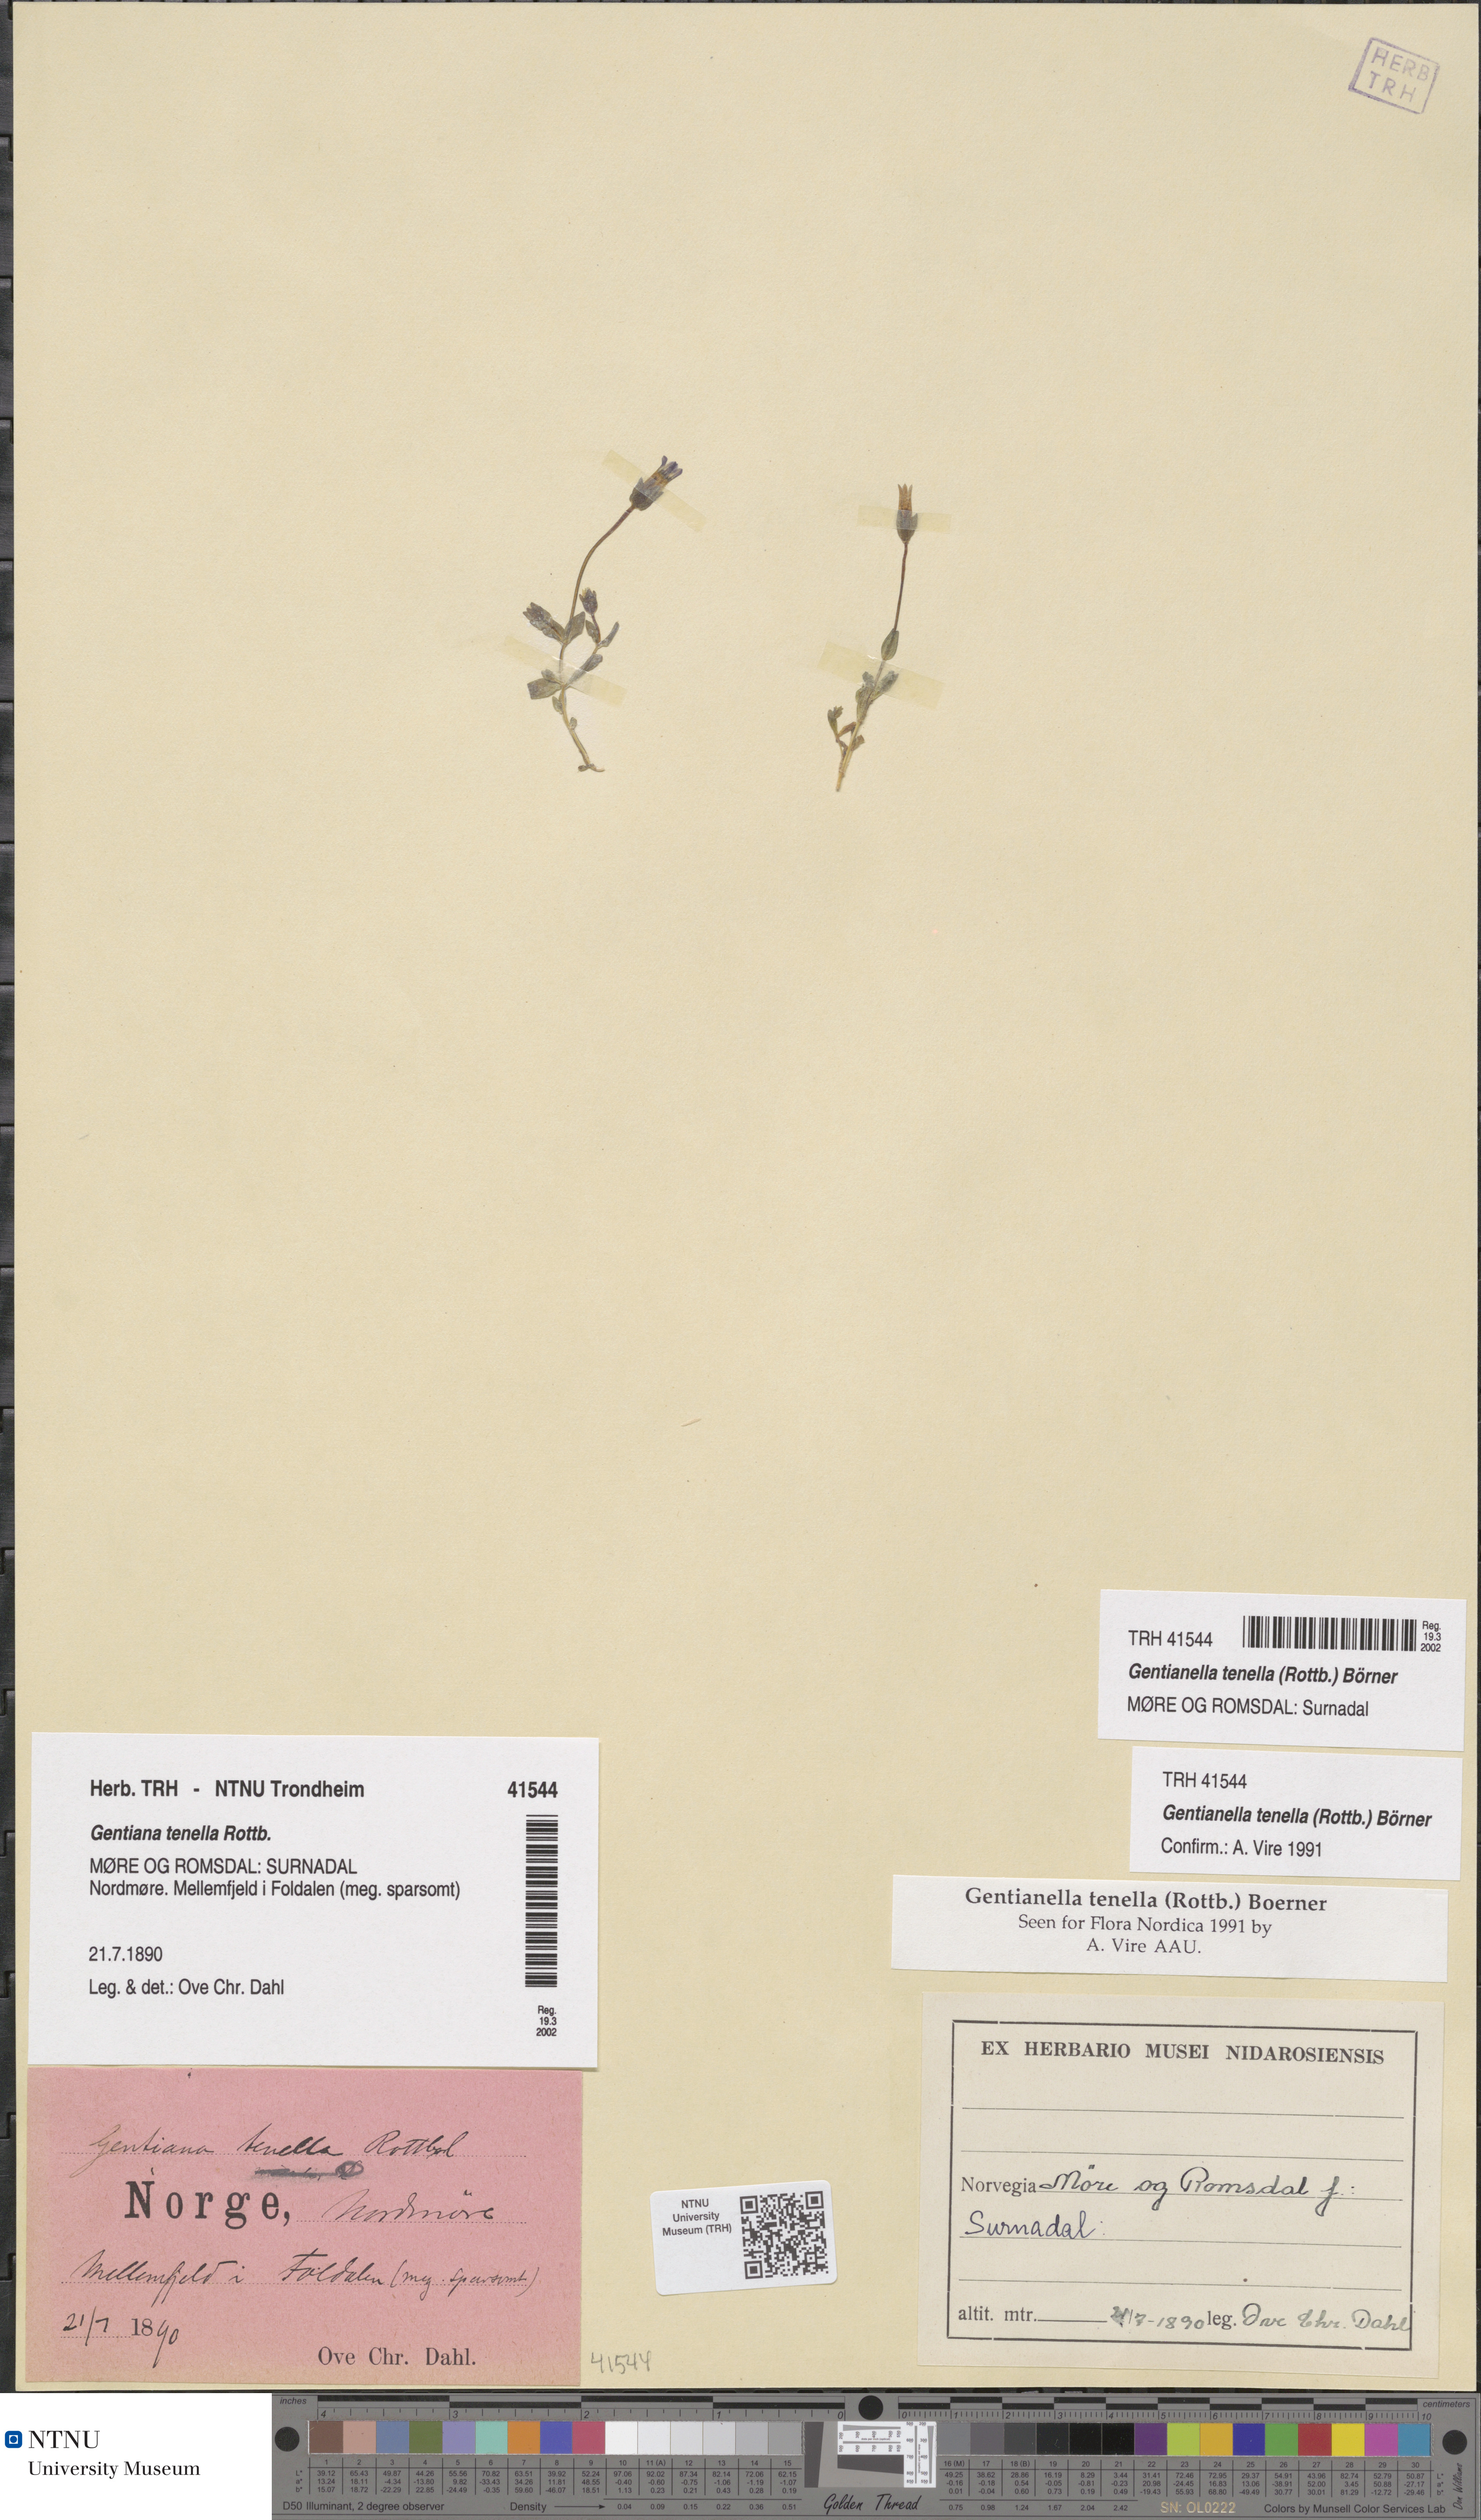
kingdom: Plantae
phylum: Tracheophyta
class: Magnoliopsida
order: Gentianales
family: Gentianaceae
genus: Comastoma
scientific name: Comastoma tenellum
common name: Dane's dwarf gentian
